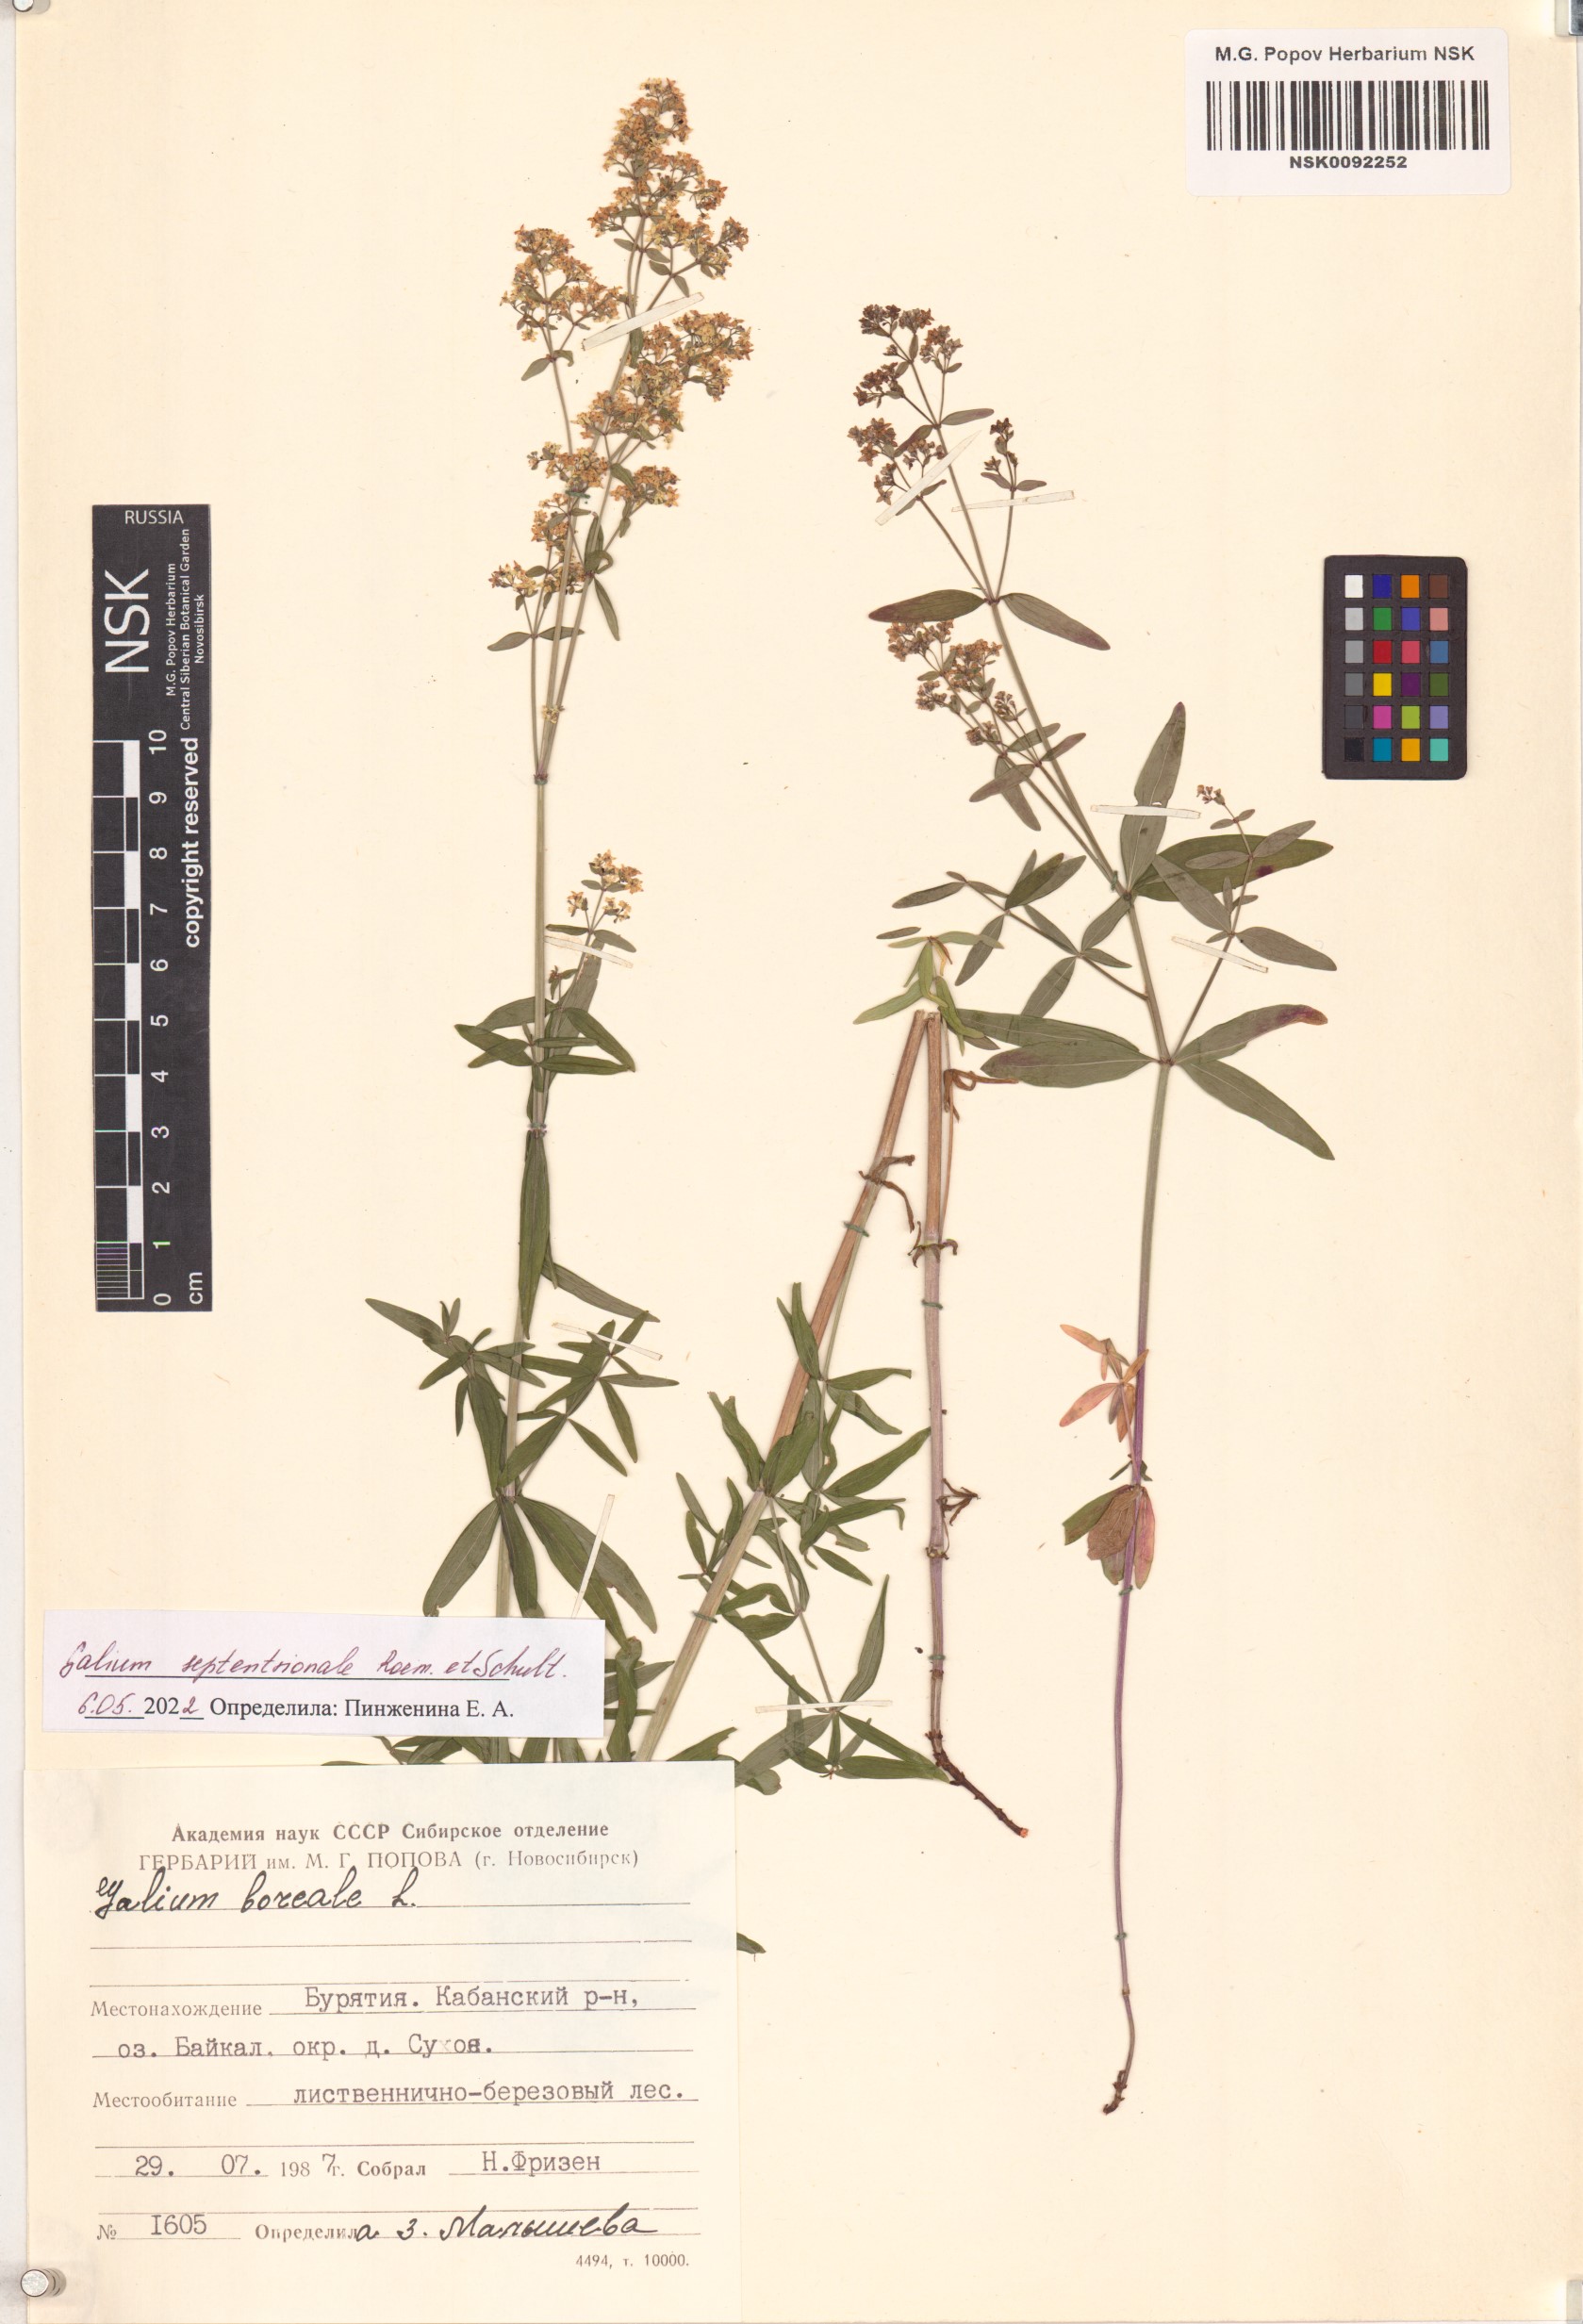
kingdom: Plantae
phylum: Tracheophyta
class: Magnoliopsida
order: Gentianales
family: Rubiaceae
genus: Galium
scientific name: Galium boreale
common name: Northern bedstraw
